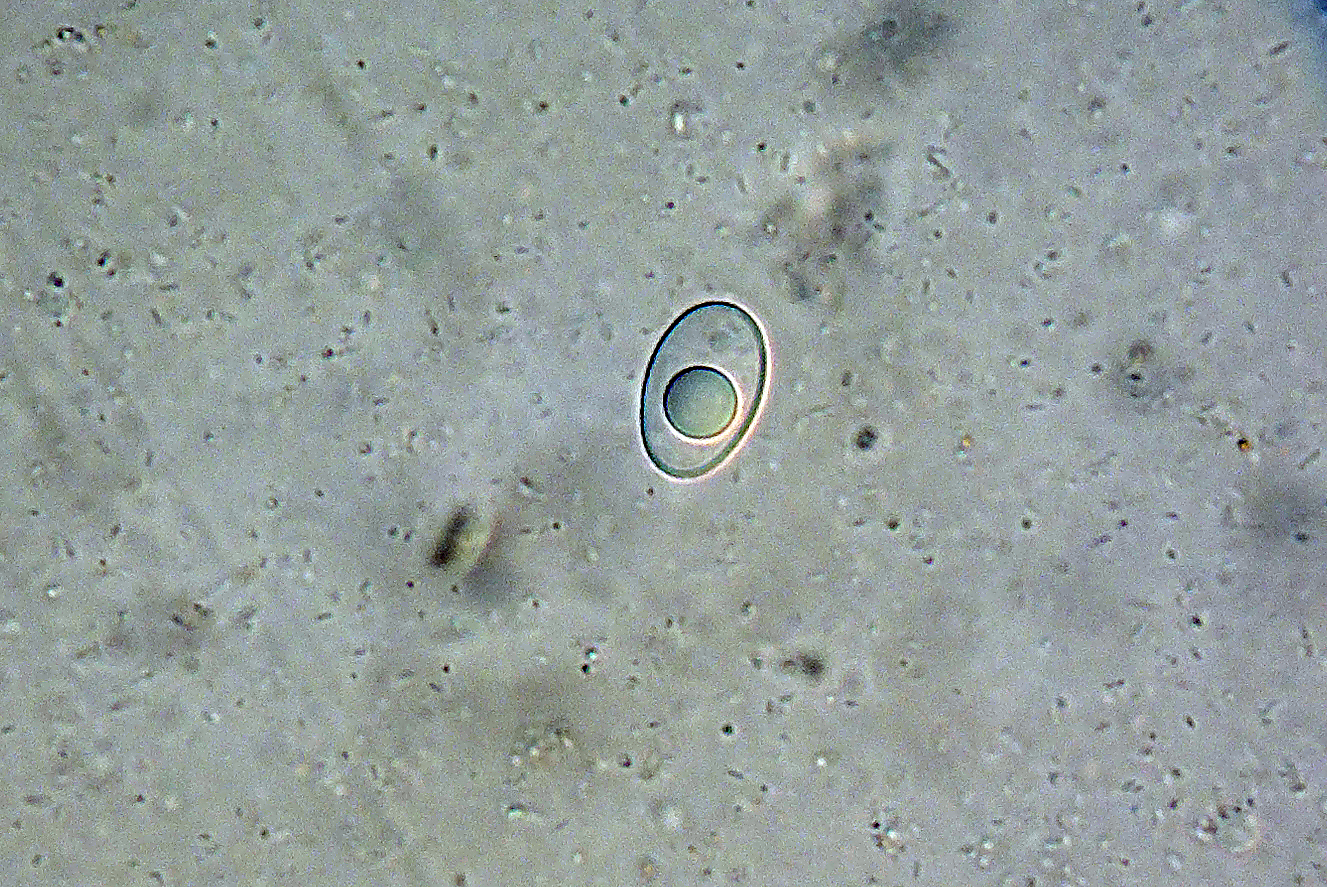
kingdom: Fungi
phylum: Ascomycota
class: Pezizomycetes
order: Pezizales
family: Pyronemataceae
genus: Octospora
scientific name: Octospora rustica
